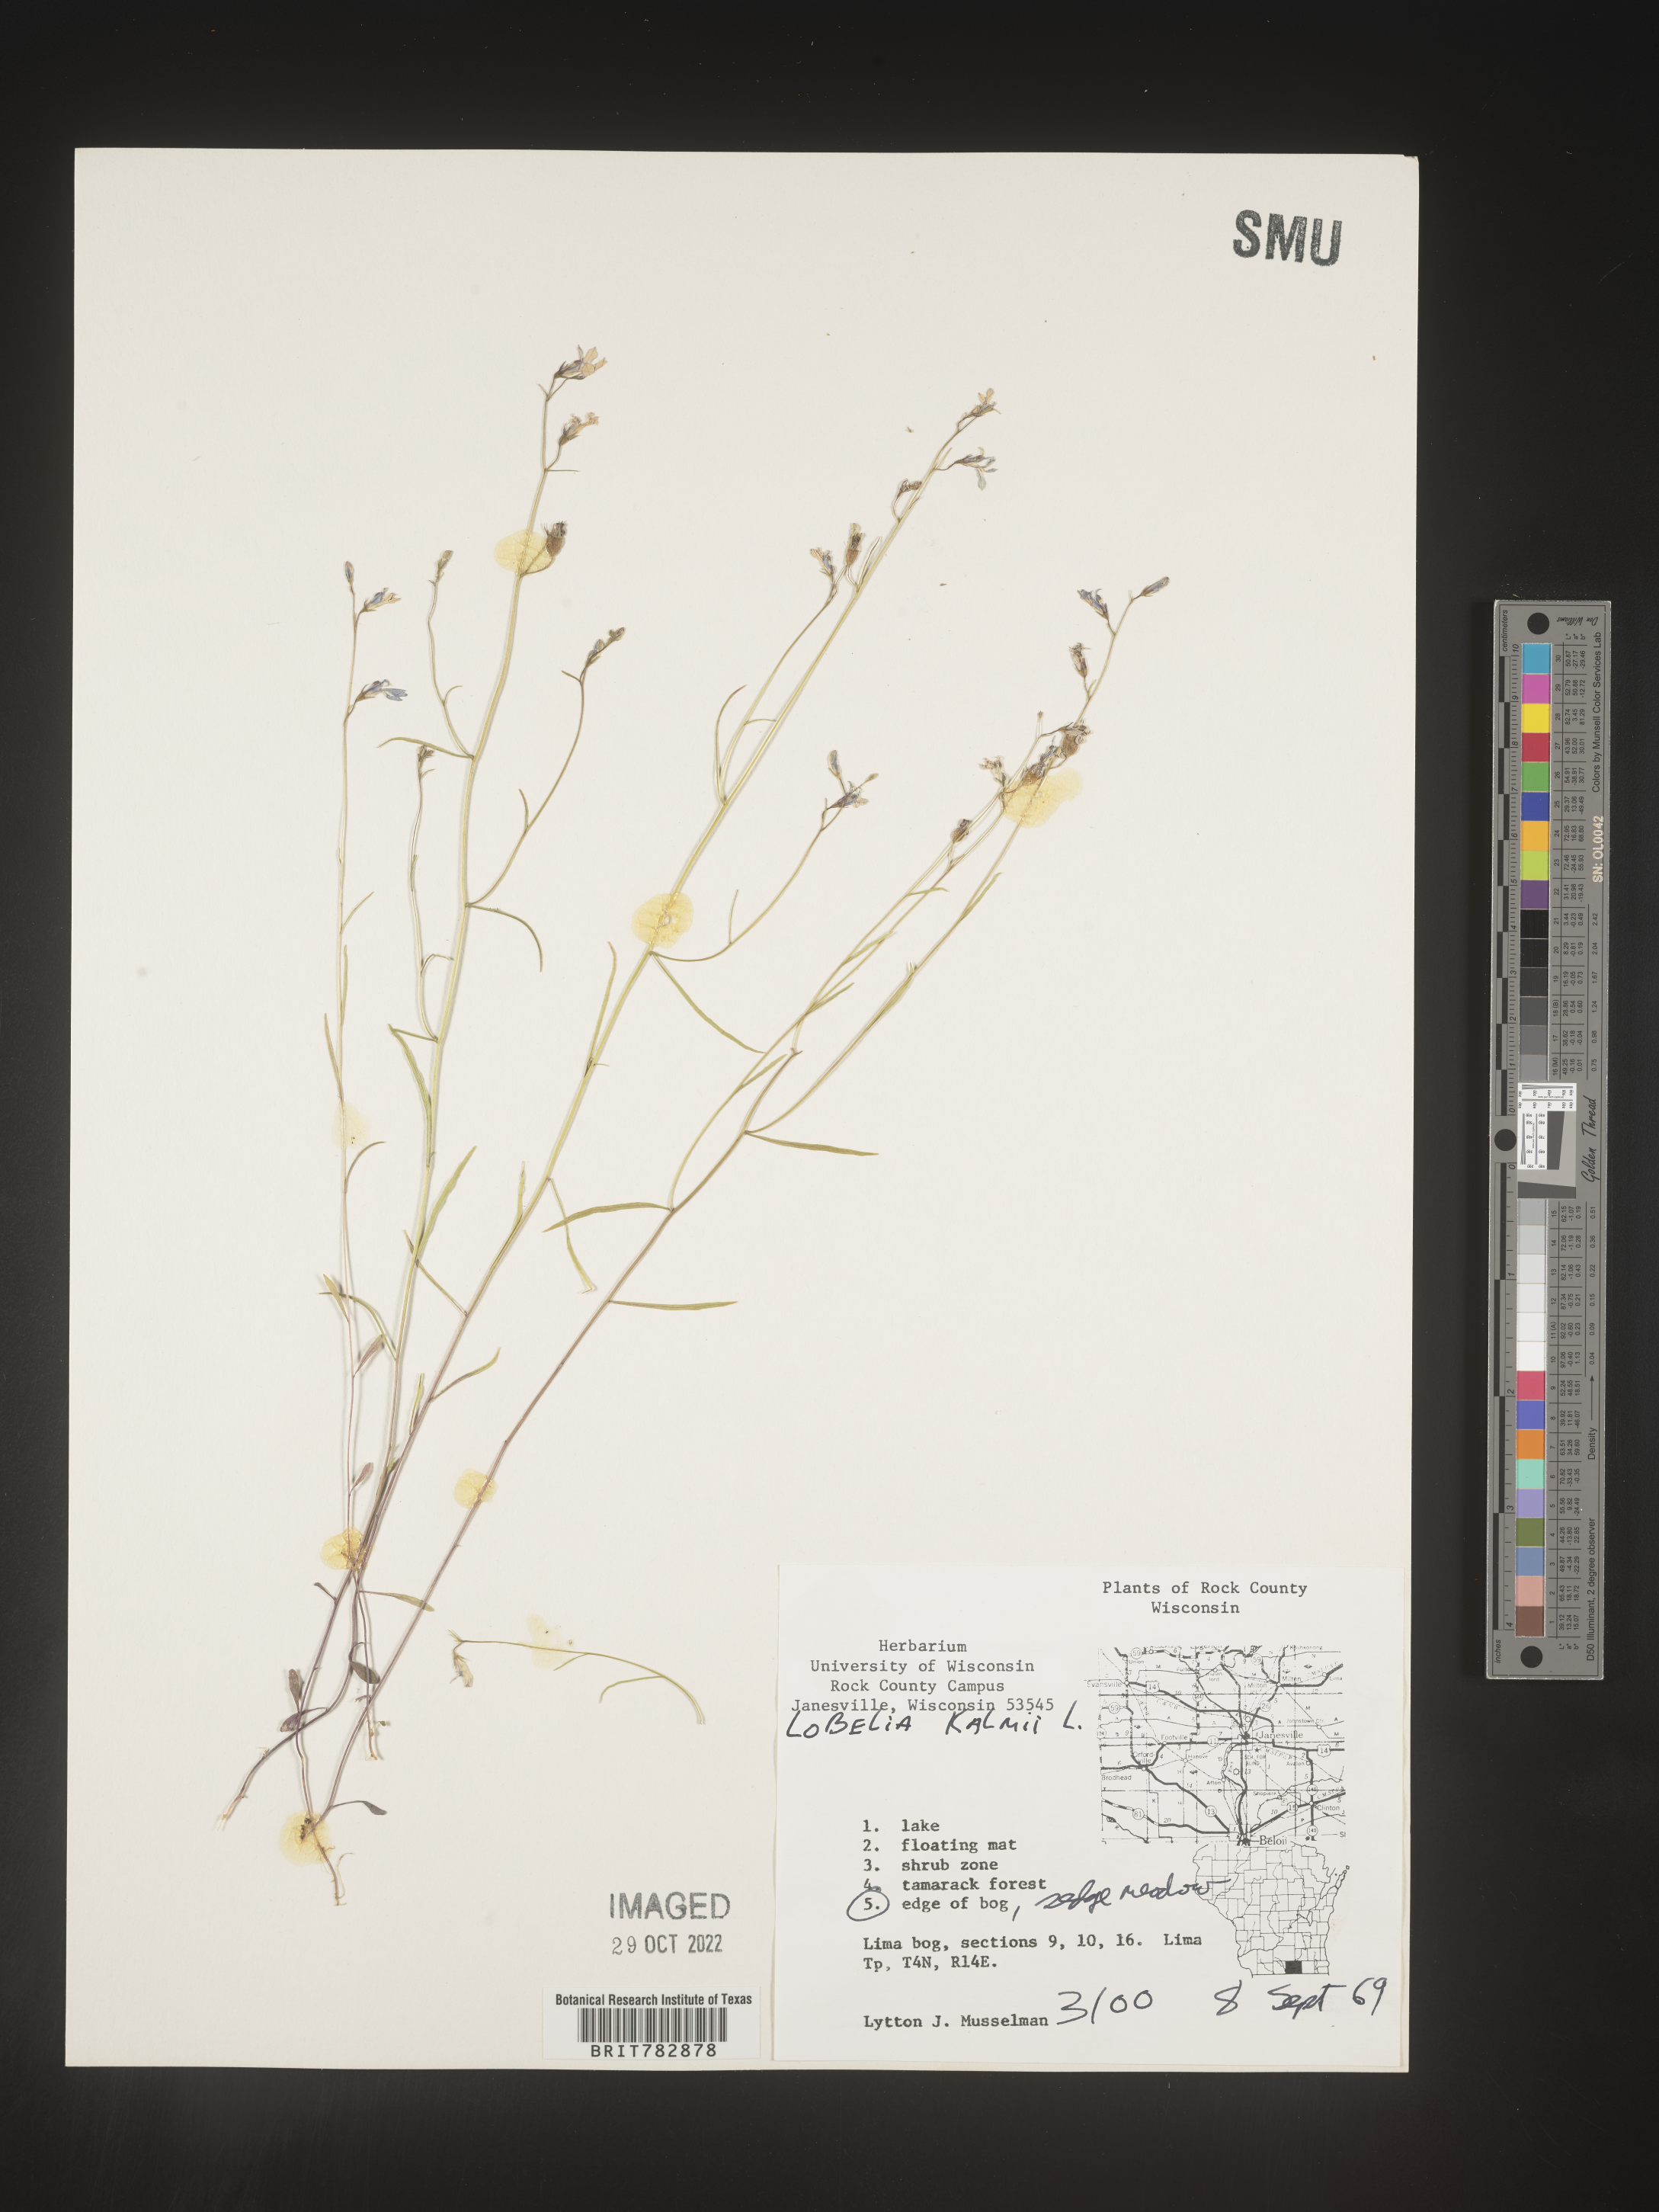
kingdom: Plantae
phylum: Tracheophyta
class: Magnoliopsida
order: Asterales
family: Campanulaceae
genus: Lobelia
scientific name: Lobelia
